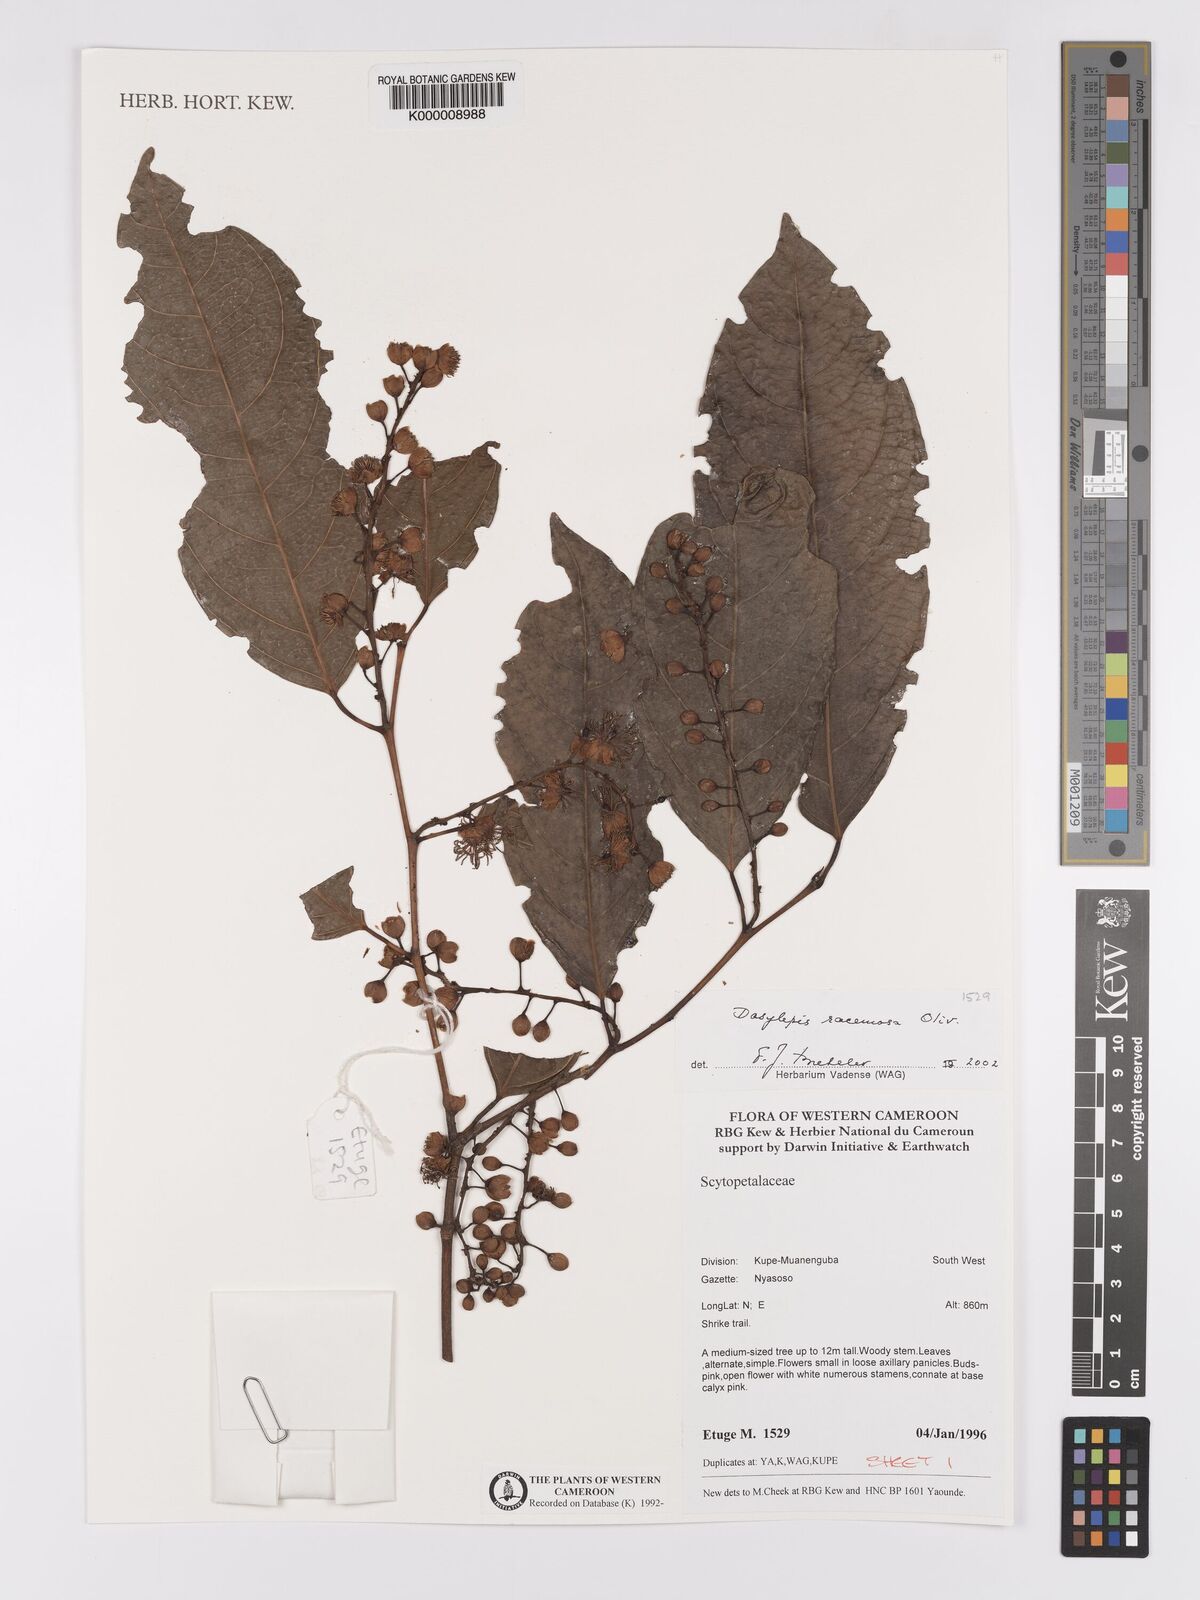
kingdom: Plantae
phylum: Tracheophyta
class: Magnoliopsida
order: Malpighiales
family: Achariaceae
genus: Dasylepis
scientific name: Dasylepis racemosa
